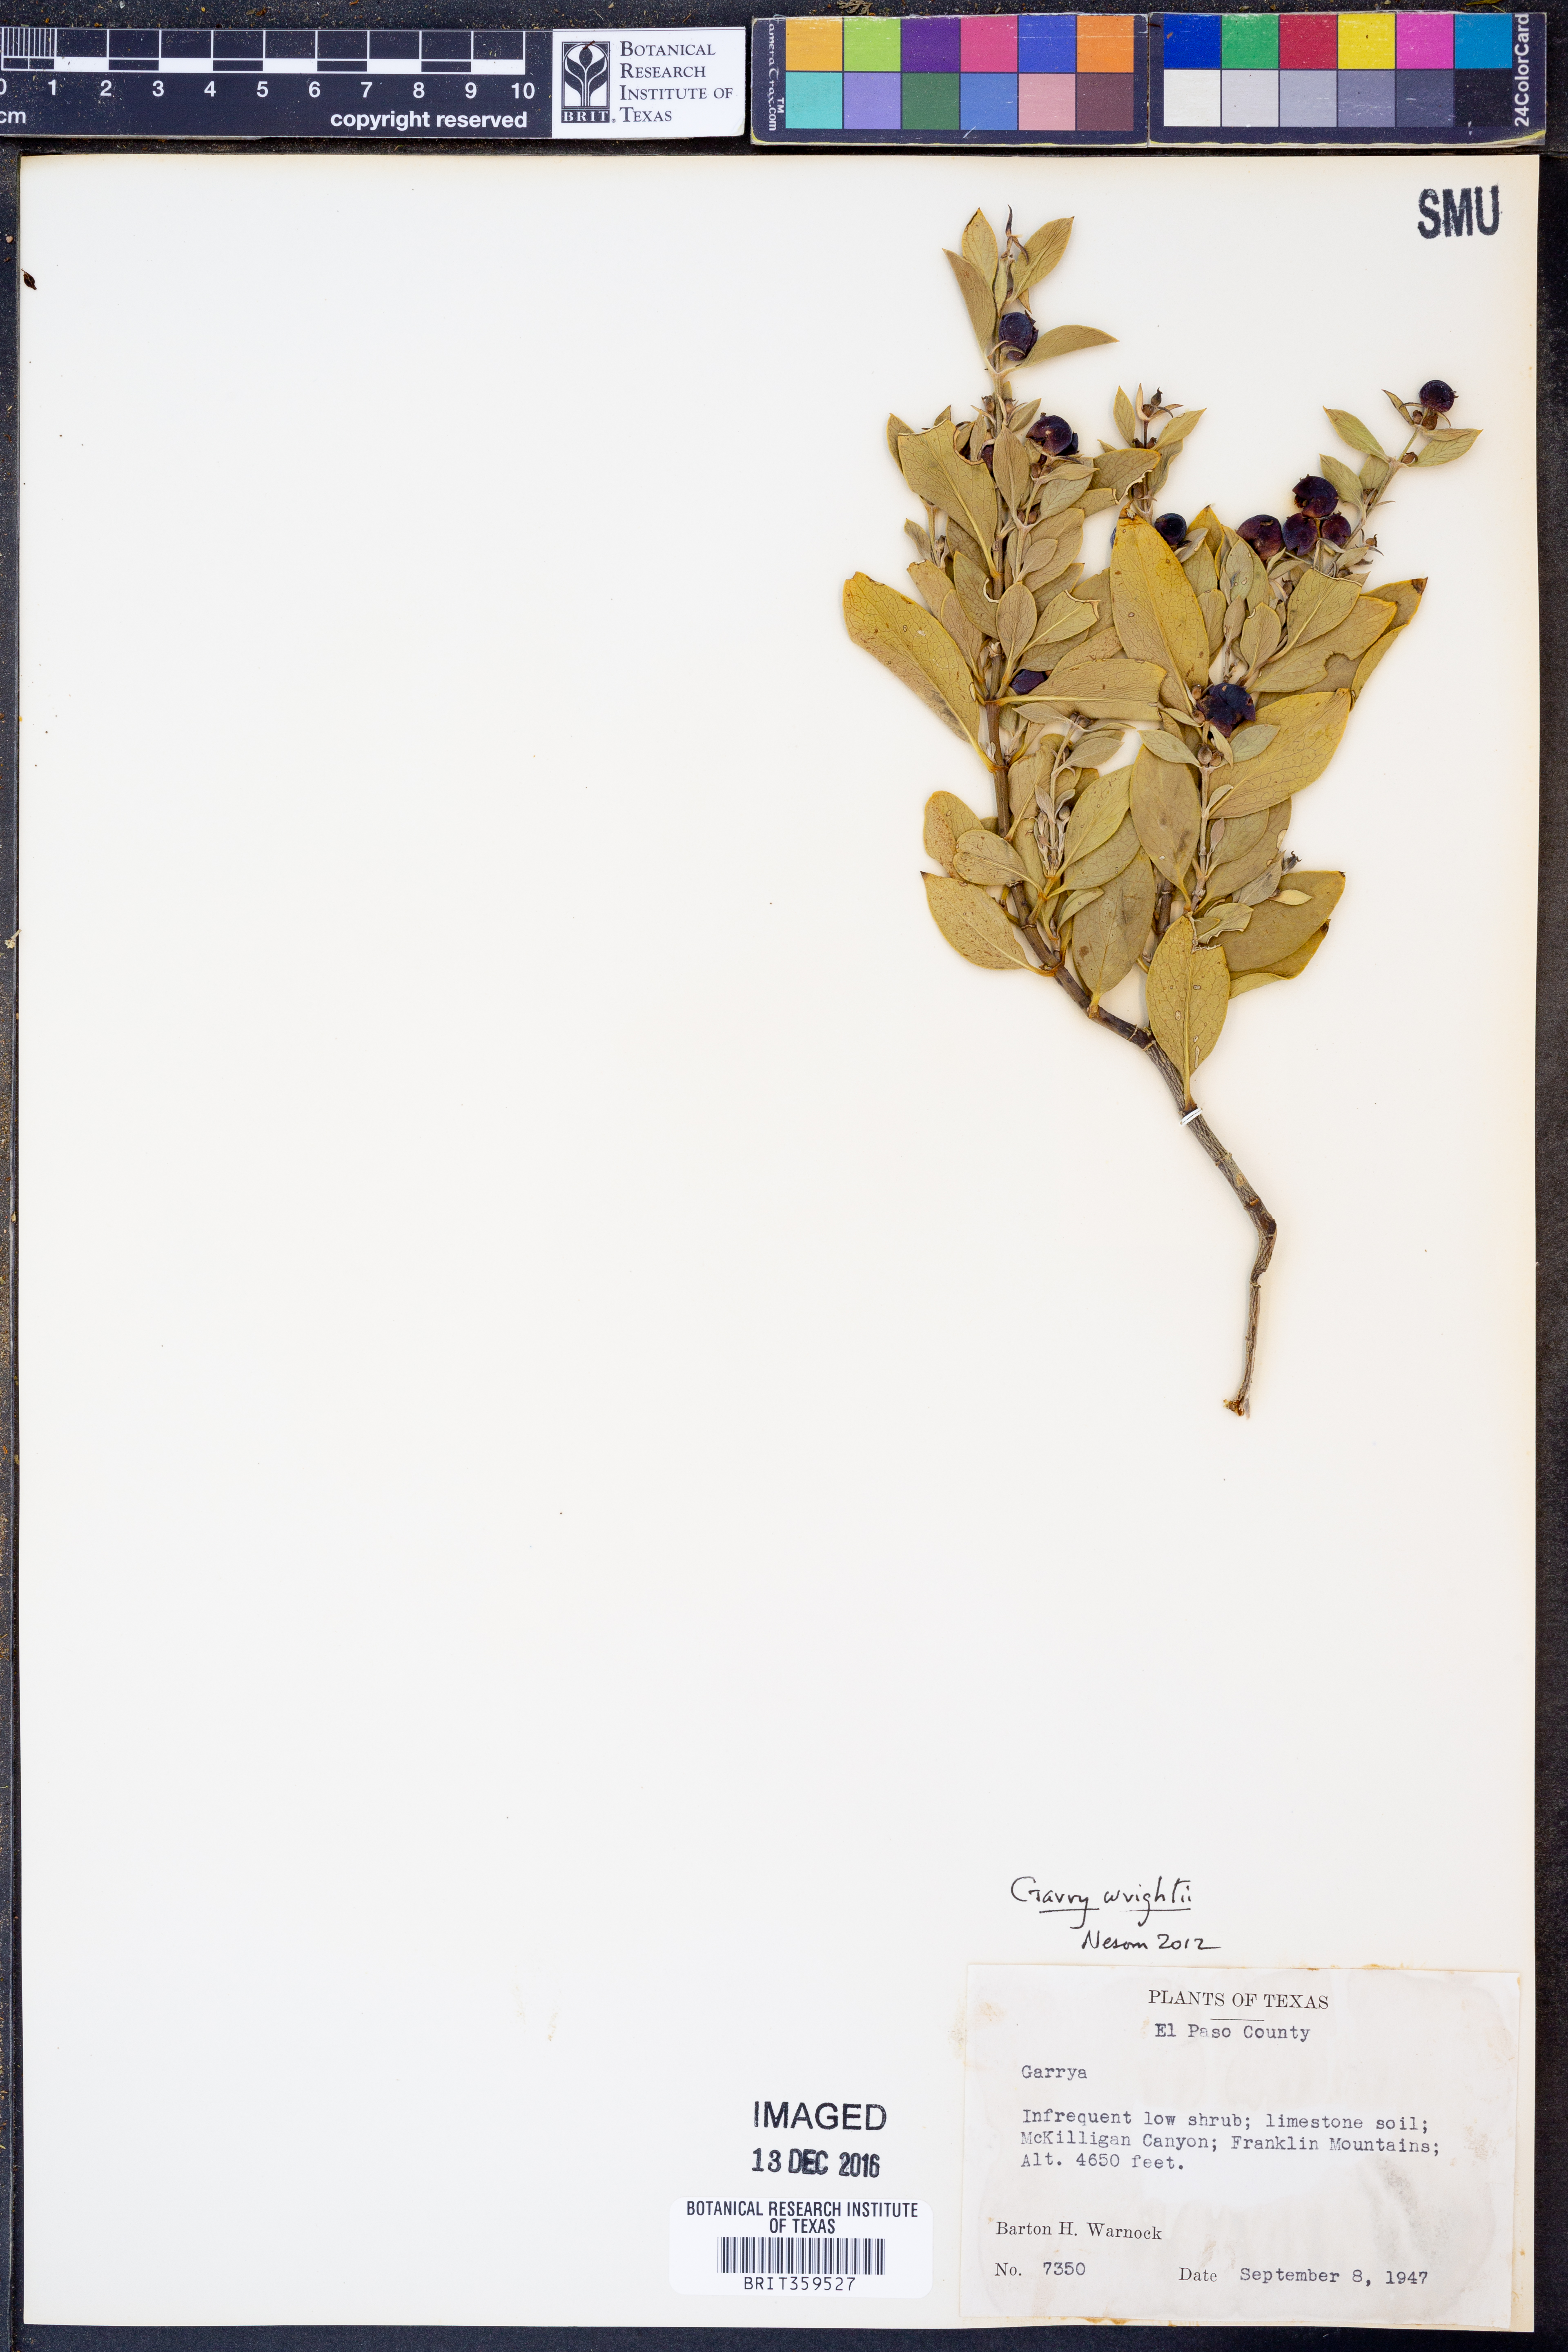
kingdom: Plantae
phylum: Tracheophyta
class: Magnoliopsida
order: Garryales
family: Garryaceae
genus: Garrya
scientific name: Garrya wrightii
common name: Wright's silktassel
